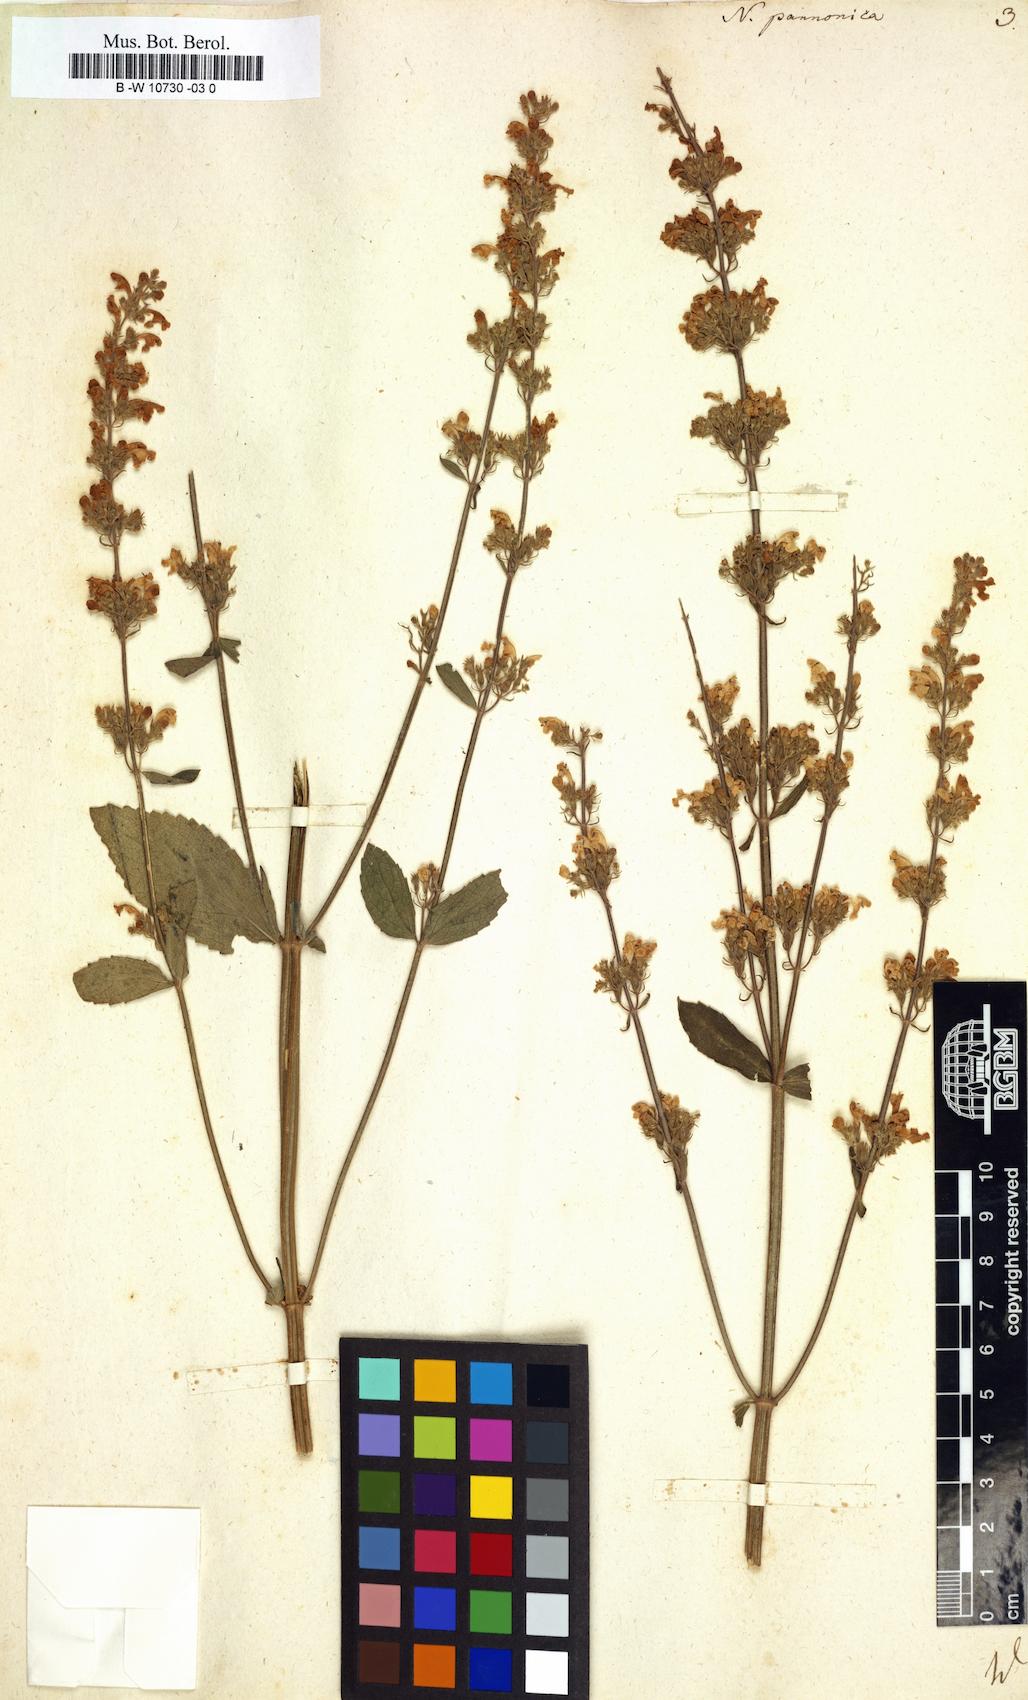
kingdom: Plantae
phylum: Tracheophyta
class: Magnoliopsida
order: Lamiales
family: Lamiaceae
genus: Nepeta
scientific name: Nepeta nuda
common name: Hairless catmint
